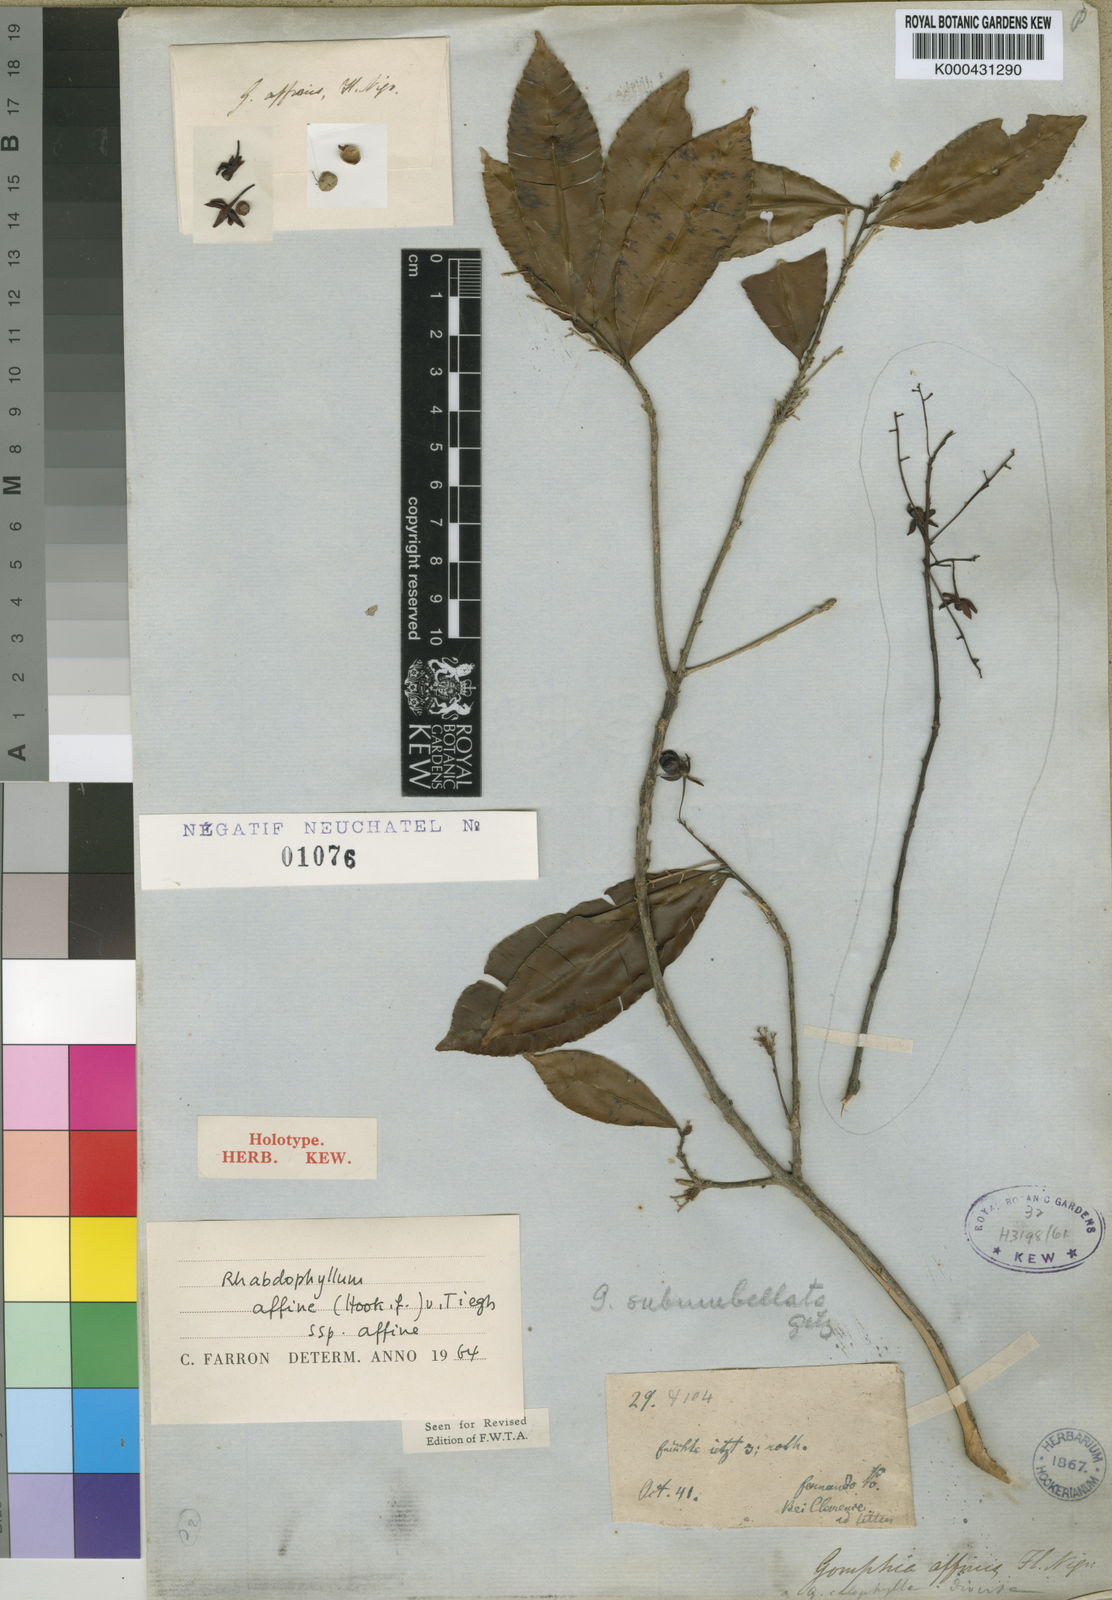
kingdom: Plantae
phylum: Tracheophyta
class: Magnoliopsida
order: Malpighiales
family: Ochnaceae
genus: Rhabdophyllum
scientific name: Rhabdophyllum affine
